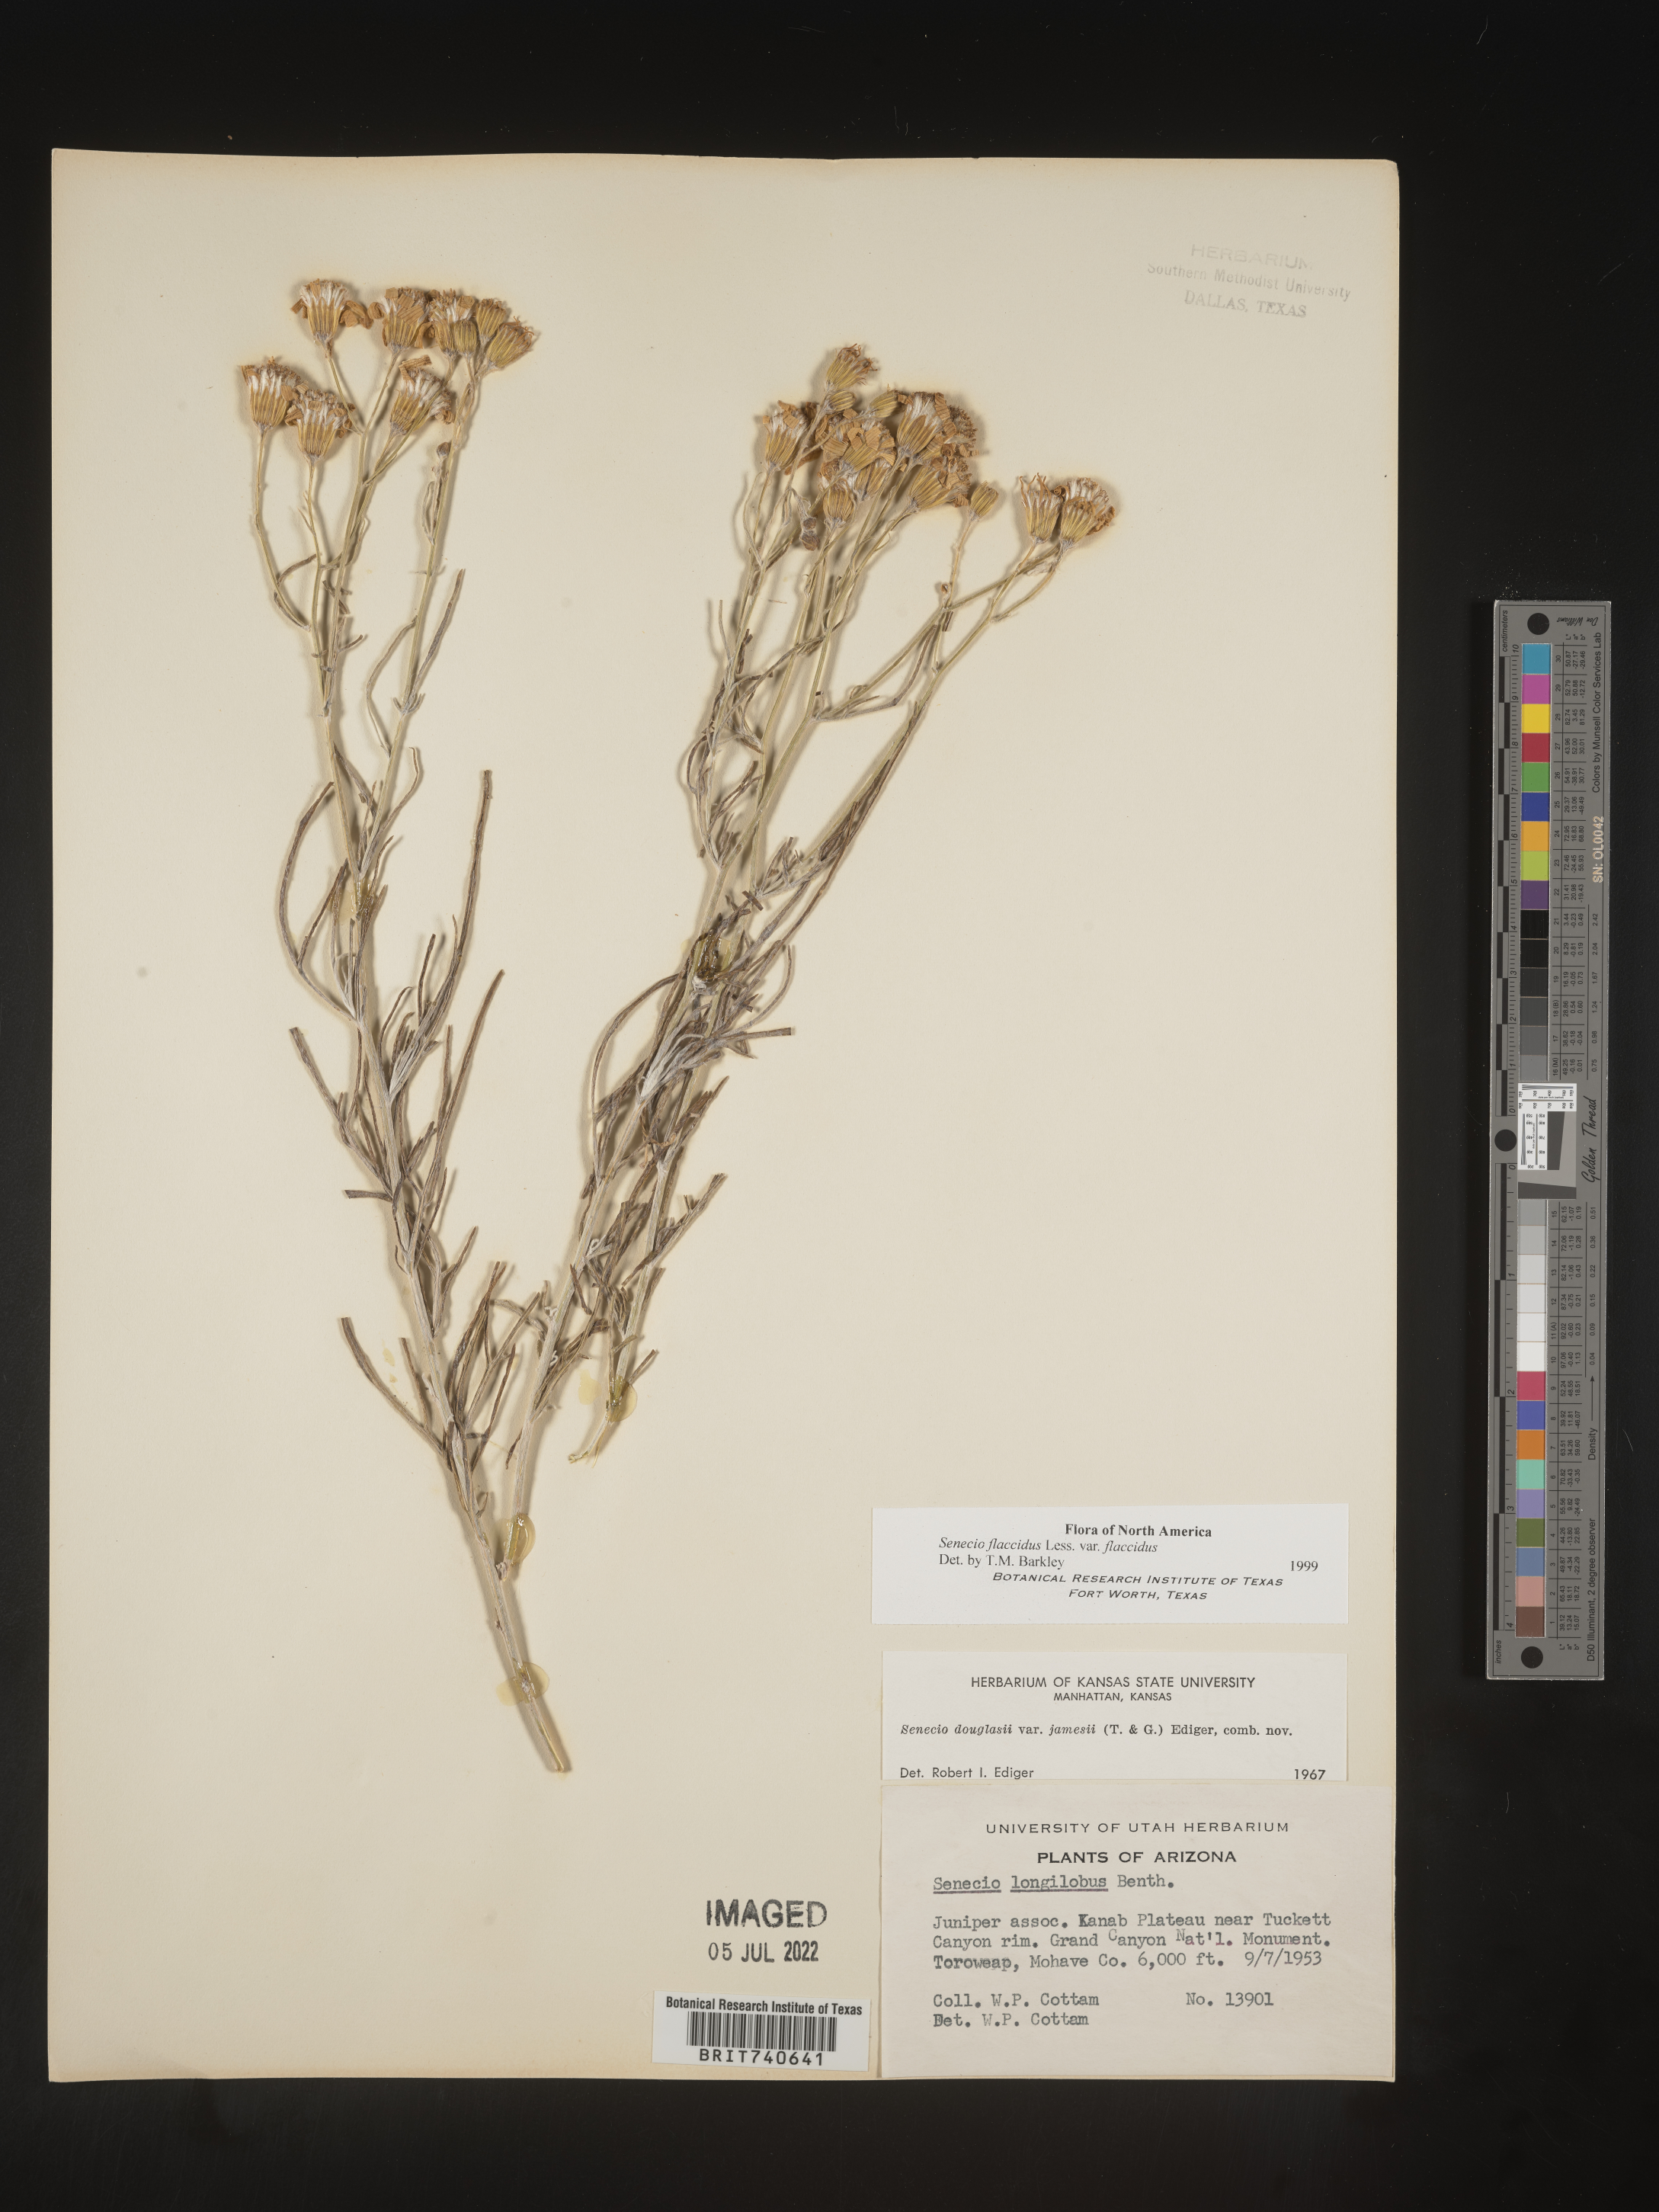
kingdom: Plantae
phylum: Tracheophyta
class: Magnoliopsida
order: Asterales
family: Asteraceae
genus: Senecio
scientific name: Senecio flaccidus
